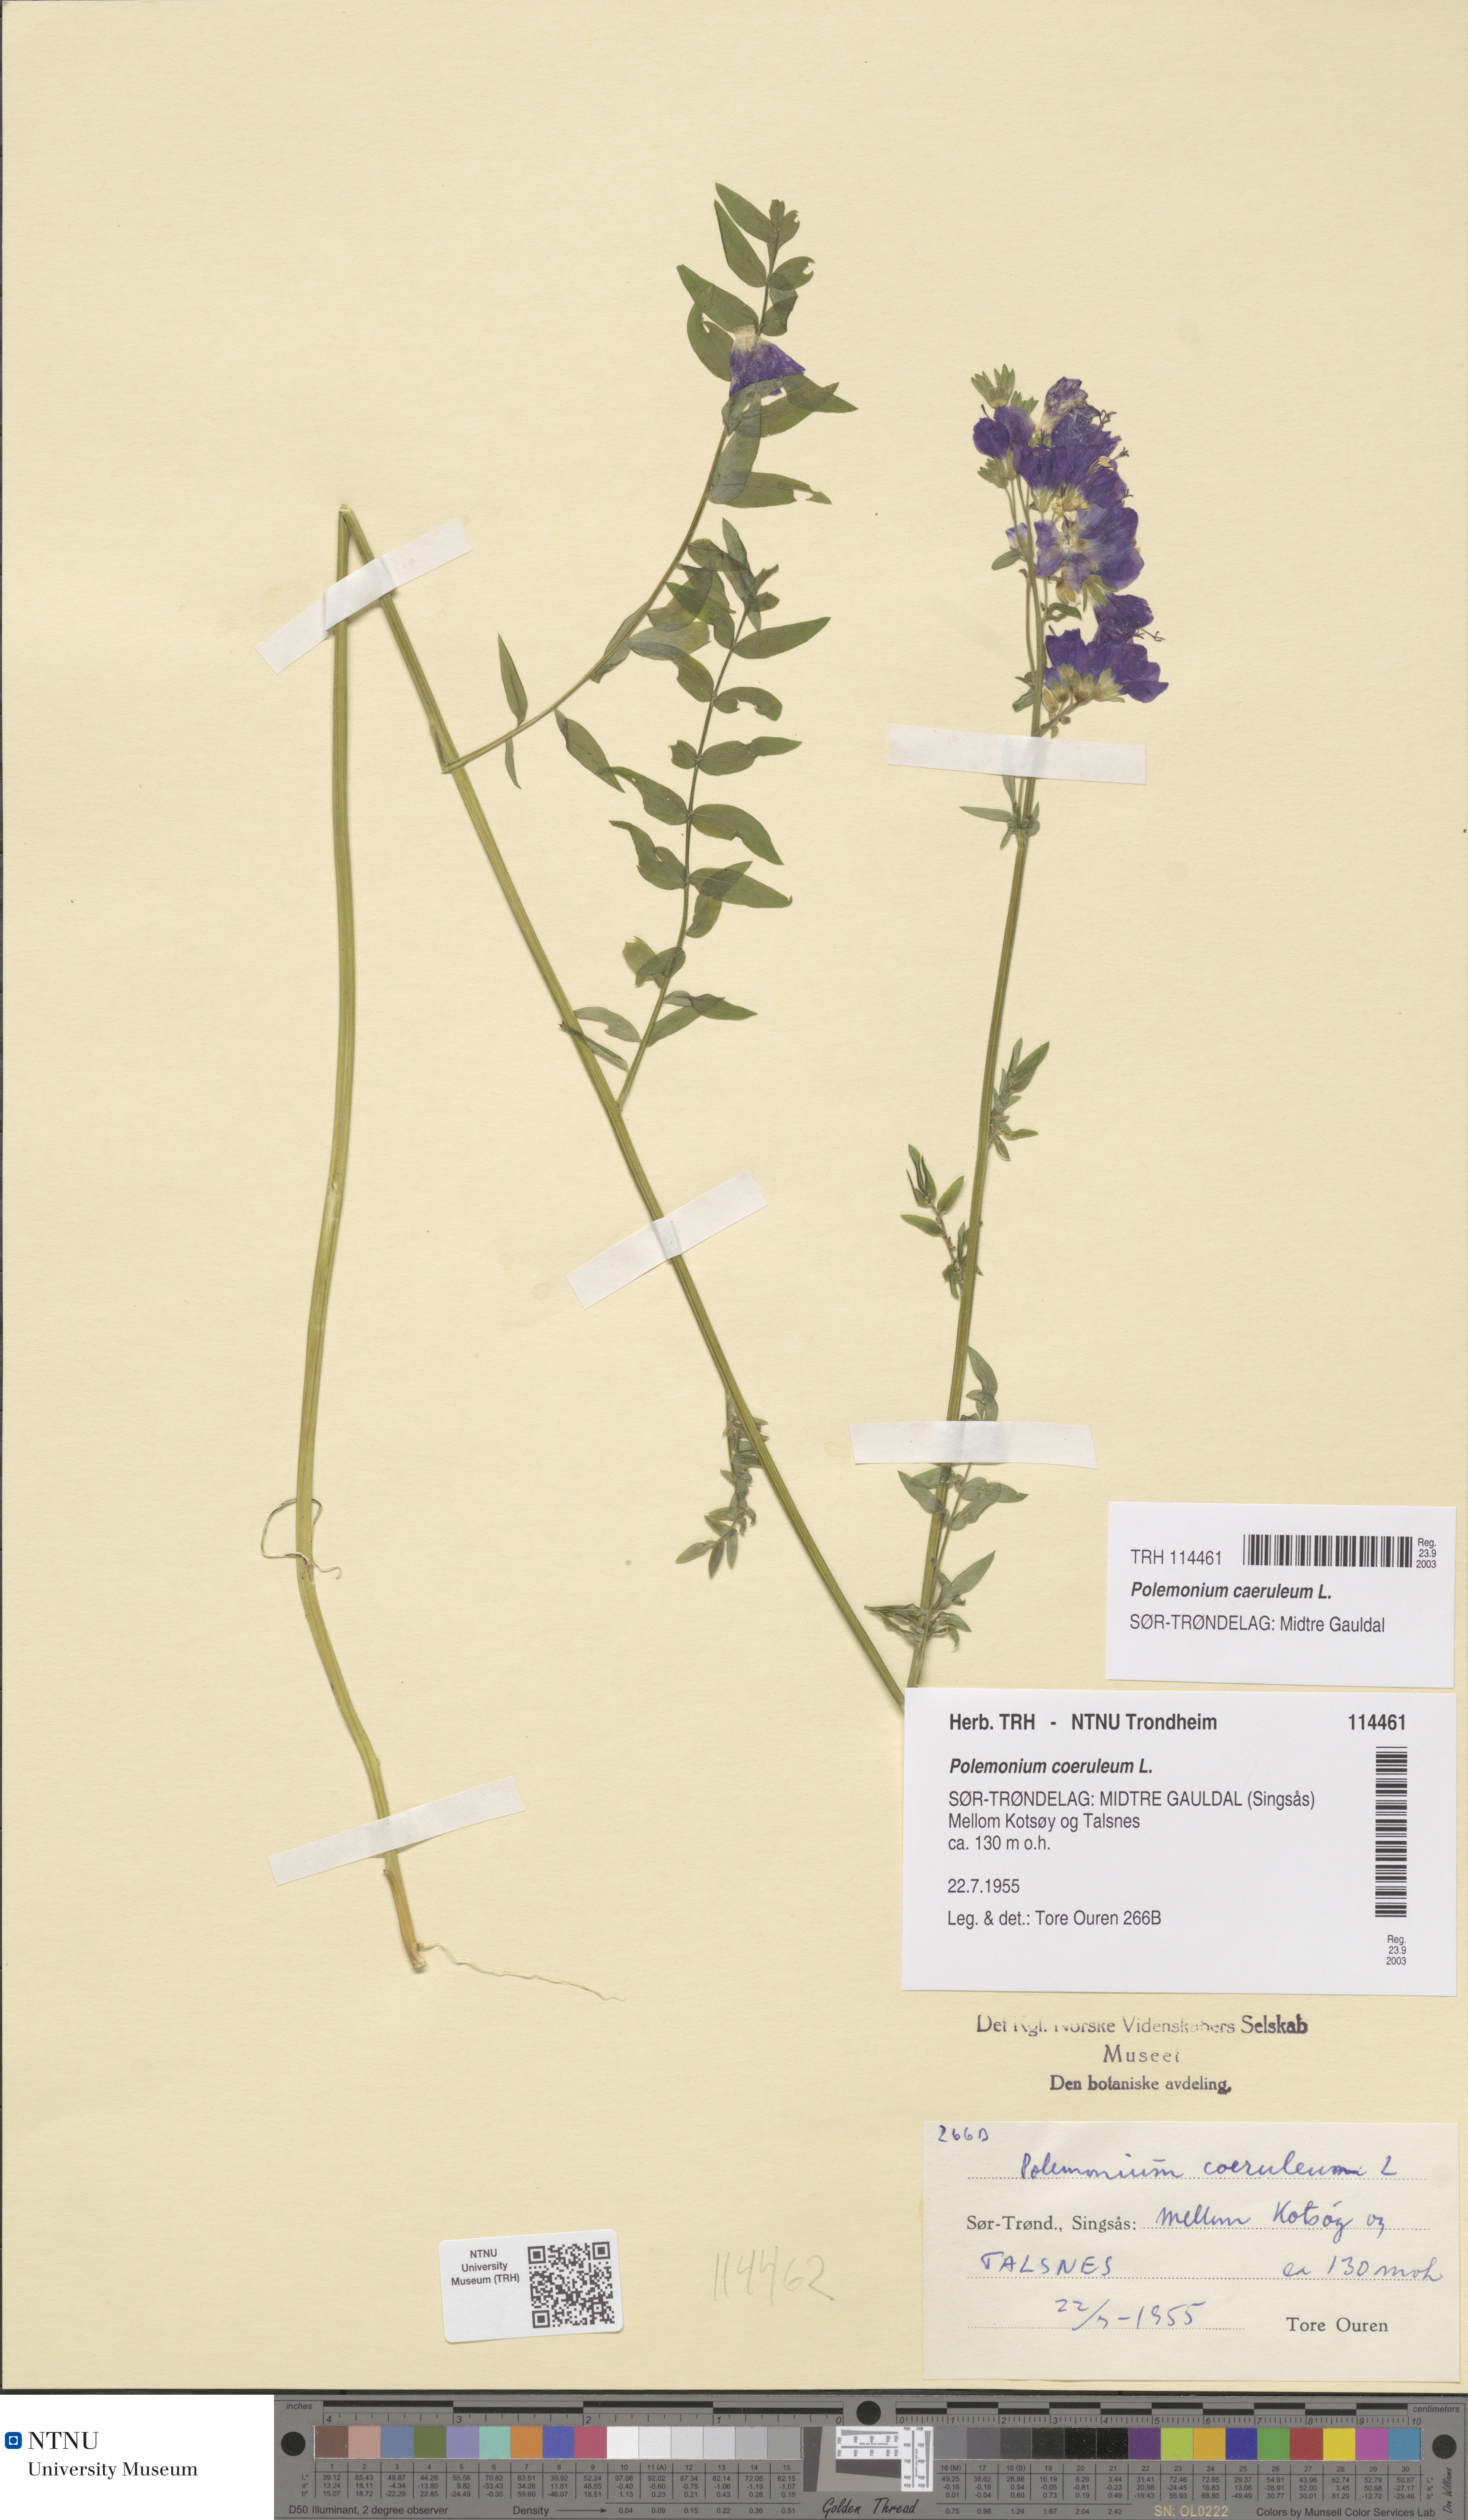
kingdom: Plantae
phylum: Tracheophyta
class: Magnoliopsida
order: Ericales
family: Polemoniaceae
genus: Polemonium
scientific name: Polemonium caeruleum
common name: Jacob's-ladder
